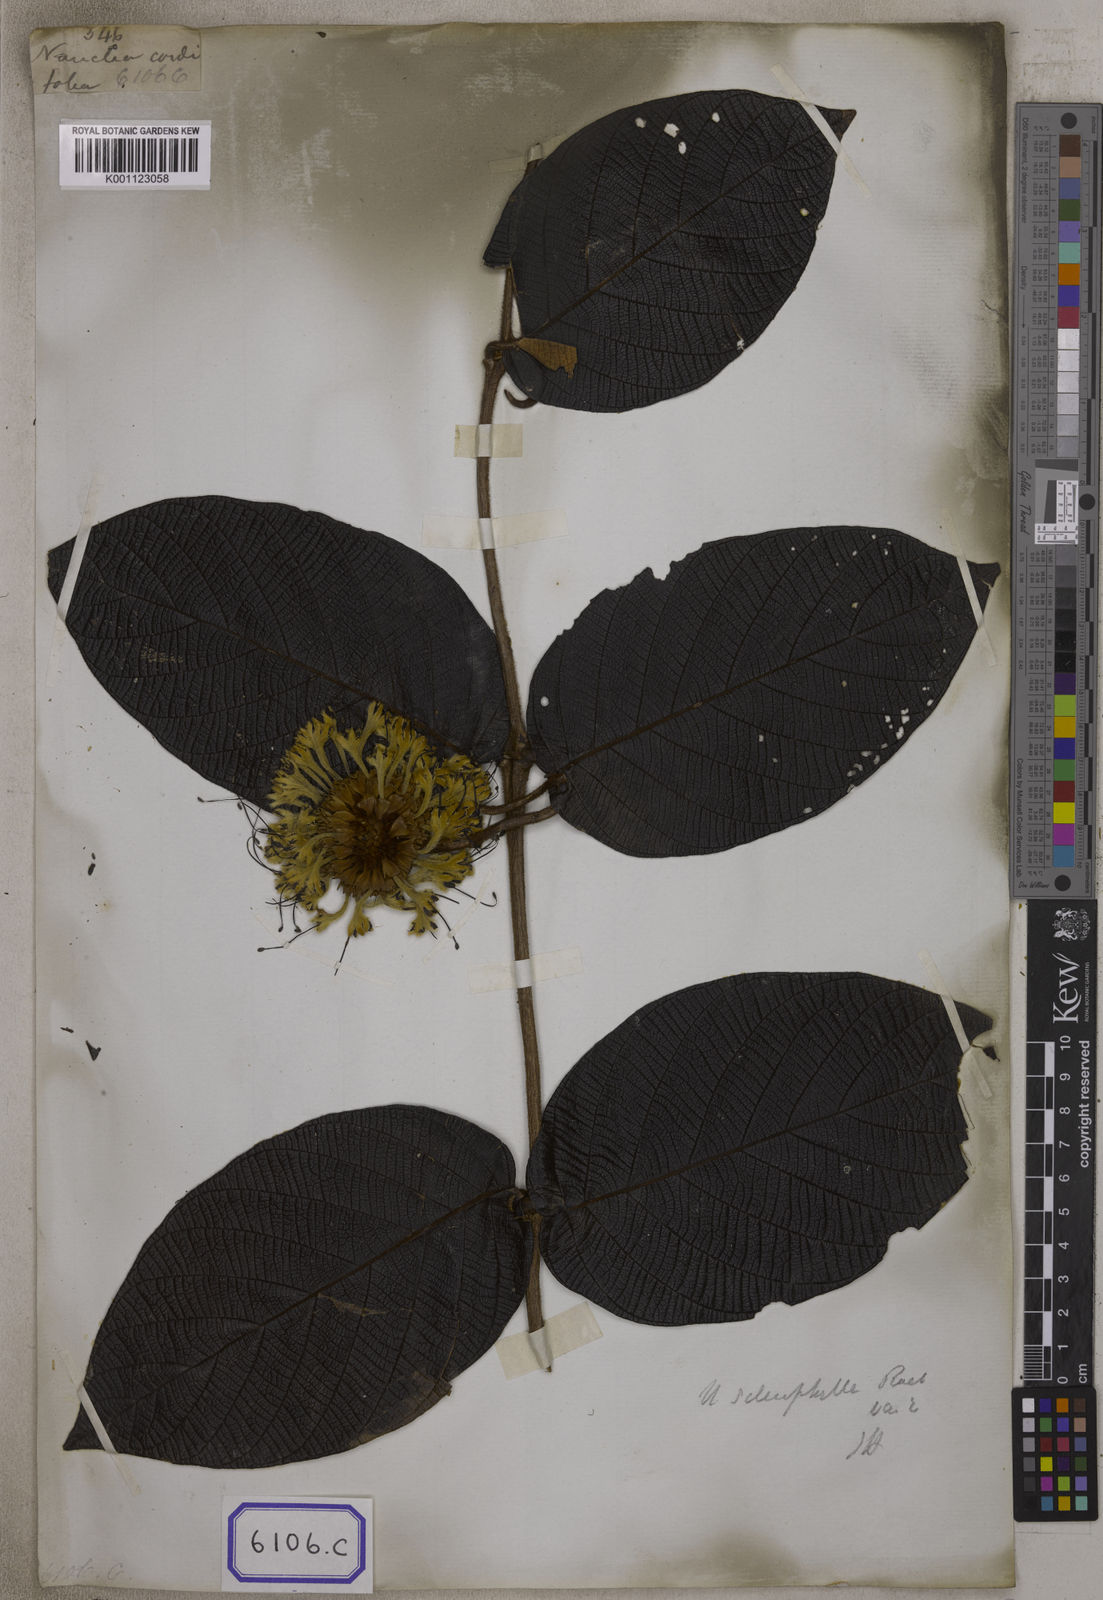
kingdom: Plantae
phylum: Tracheophyta
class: Magnoliopsida
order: Gentianales
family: Rubiaceae
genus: Uncaria
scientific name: Uncaria cordata
